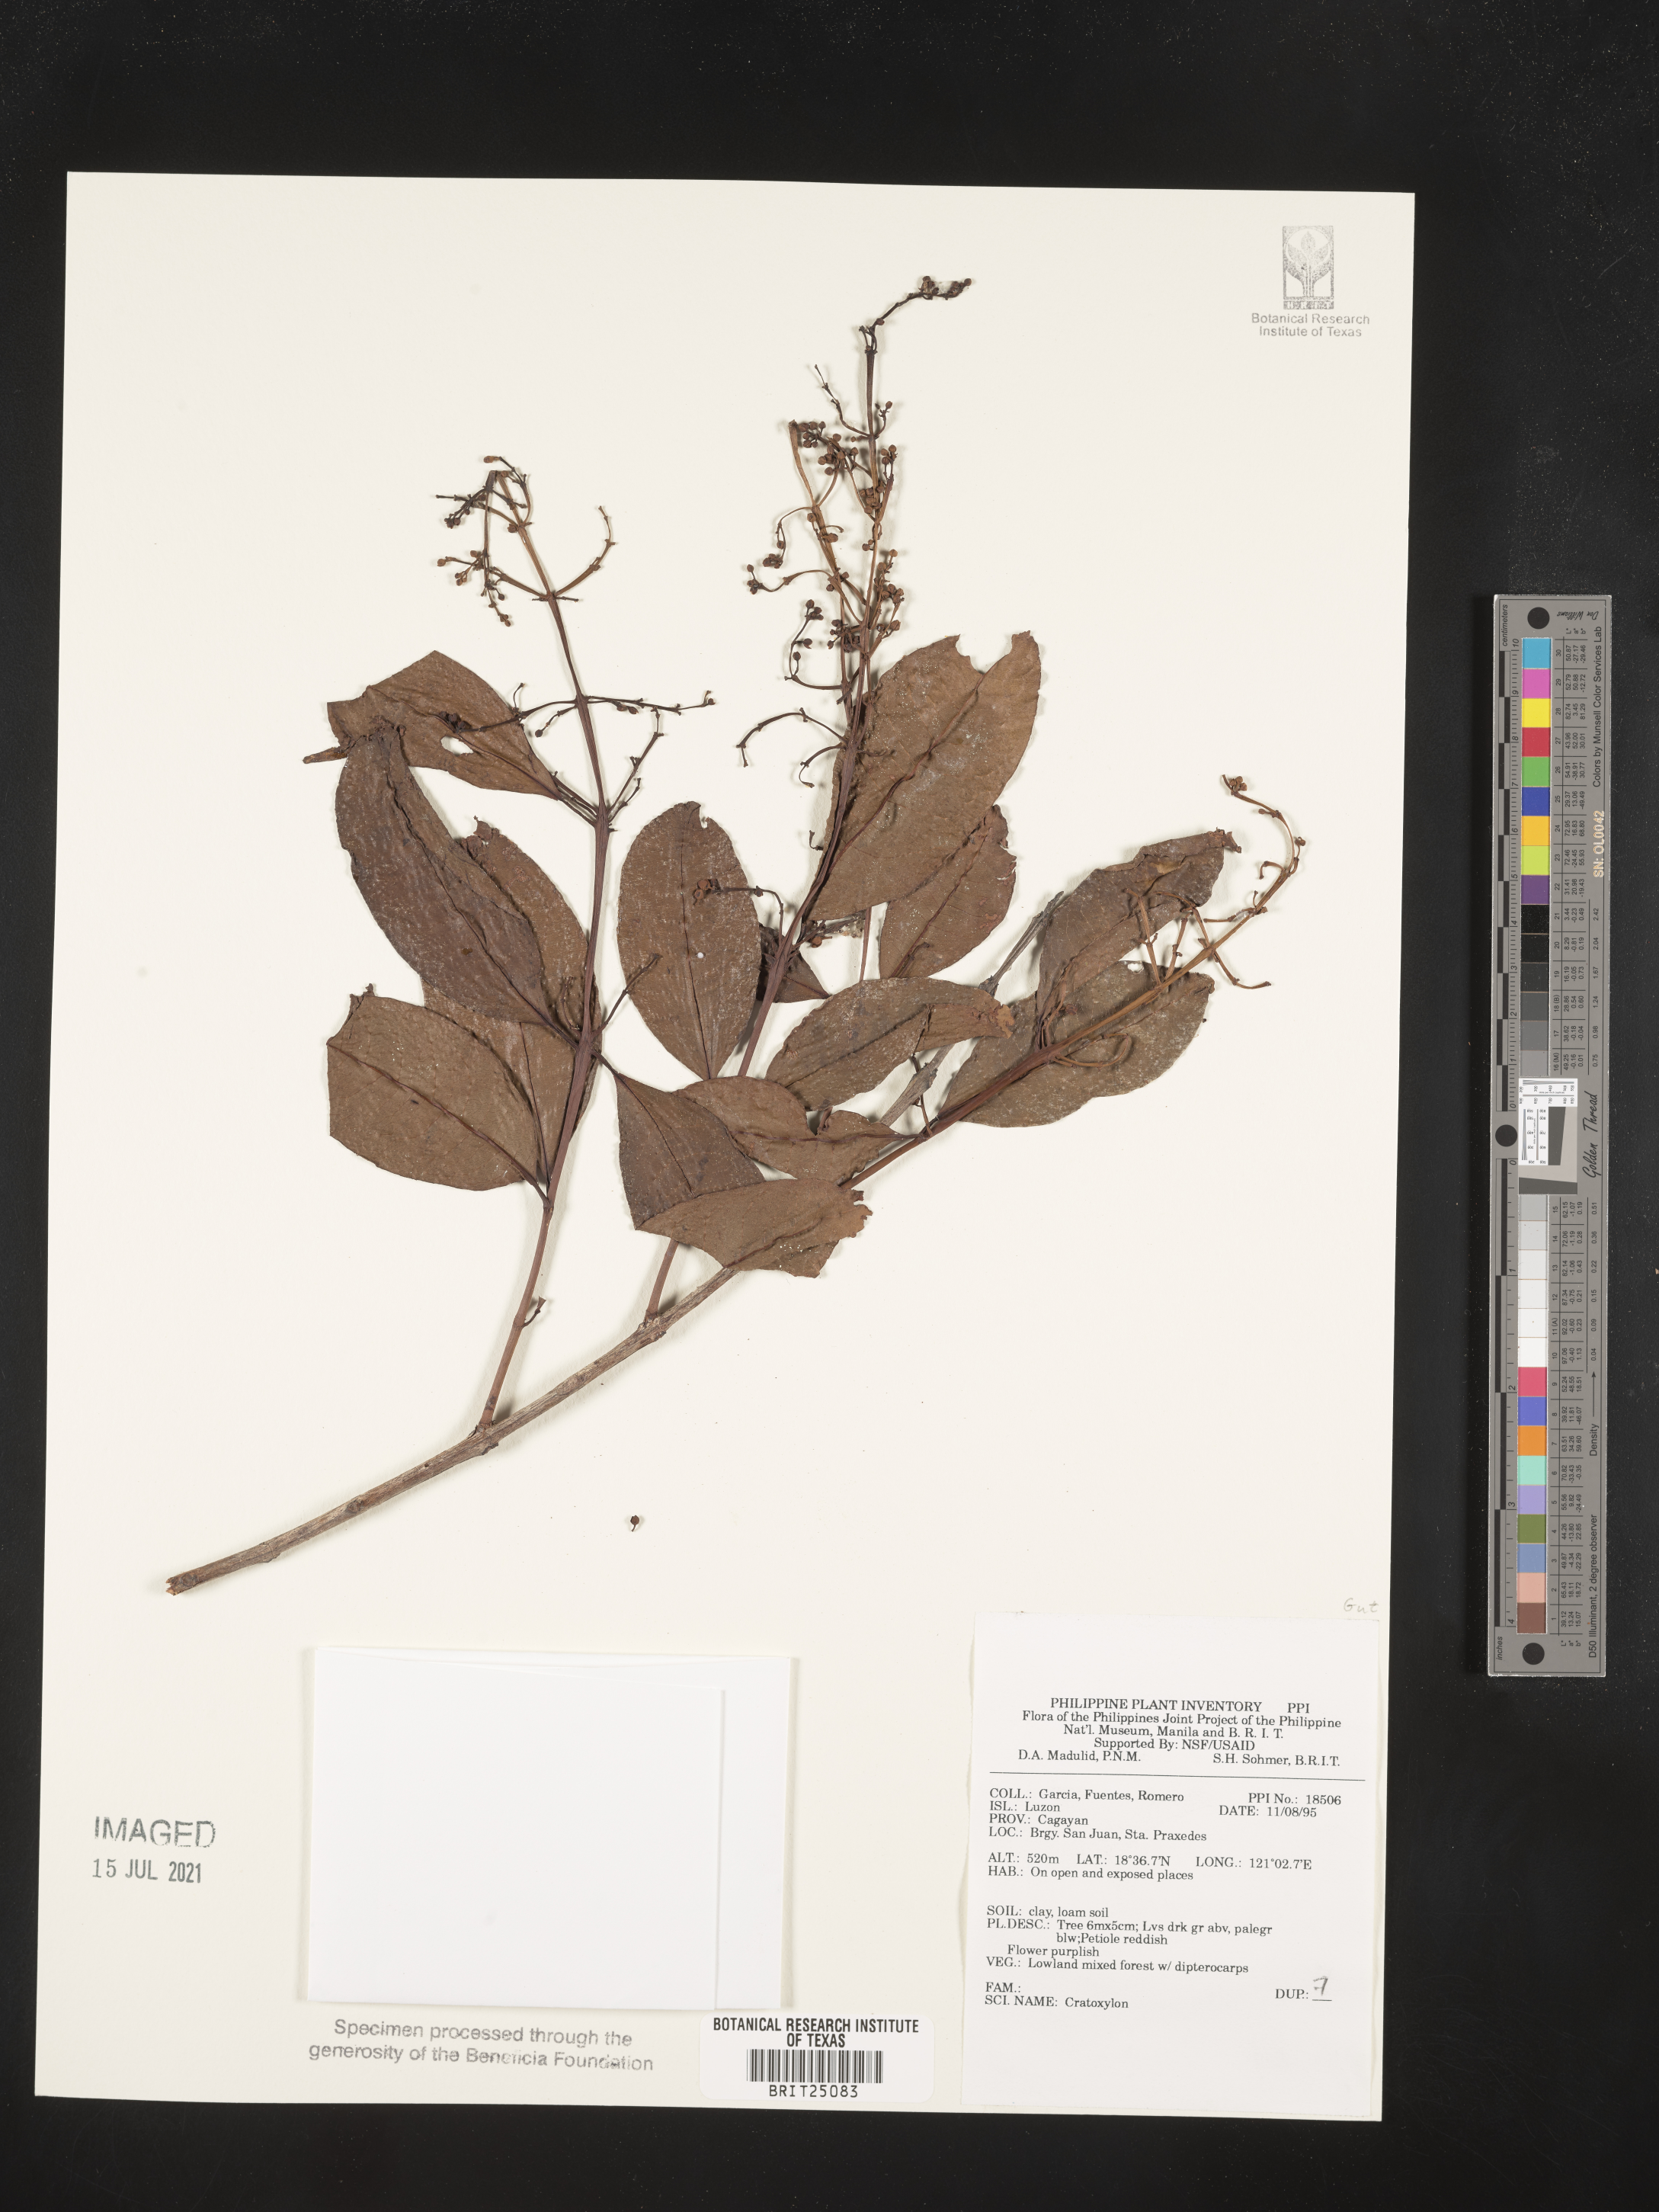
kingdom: Plantae
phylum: Tracheophyta
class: Magnoliopsida
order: Malpighiales
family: Hypericaceae
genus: Cratoxylum
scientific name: Cratoxylum
